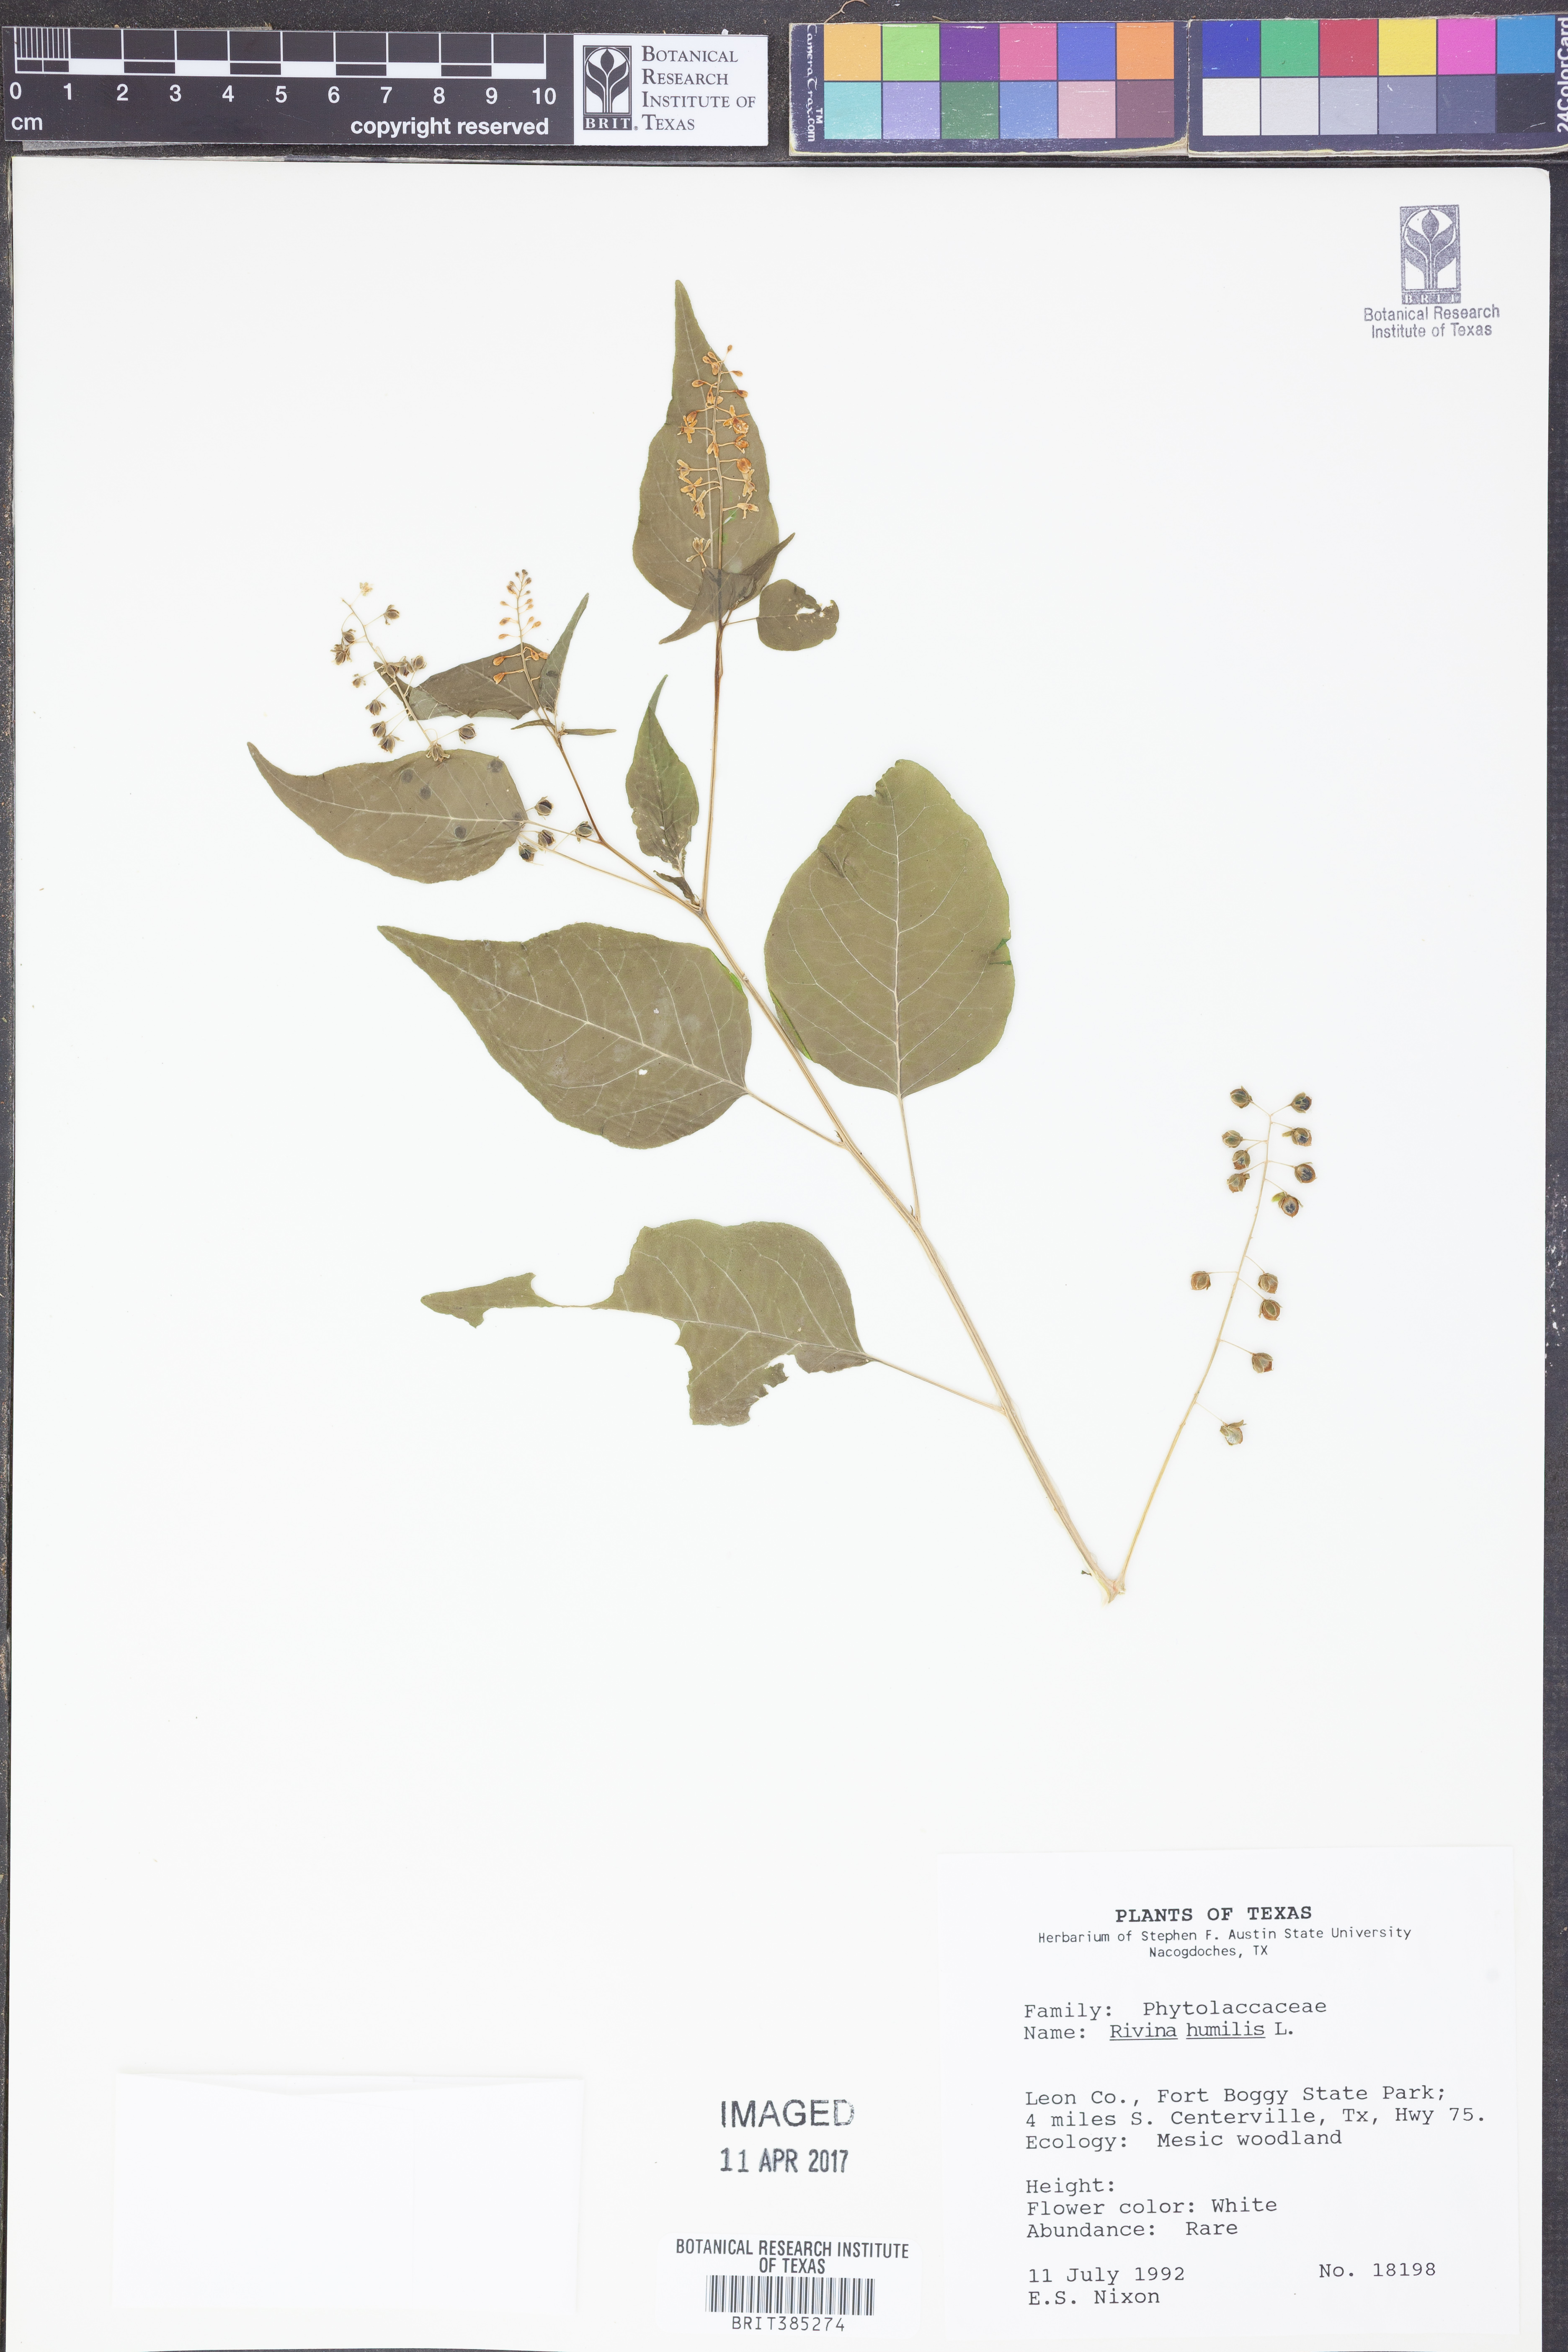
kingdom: Plantae
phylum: Tracheophyta
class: Magnoliopsida
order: Caryophyllales
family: Phytolaccaceae
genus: Rivina
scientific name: Rivina humilis
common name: Rougeplant
